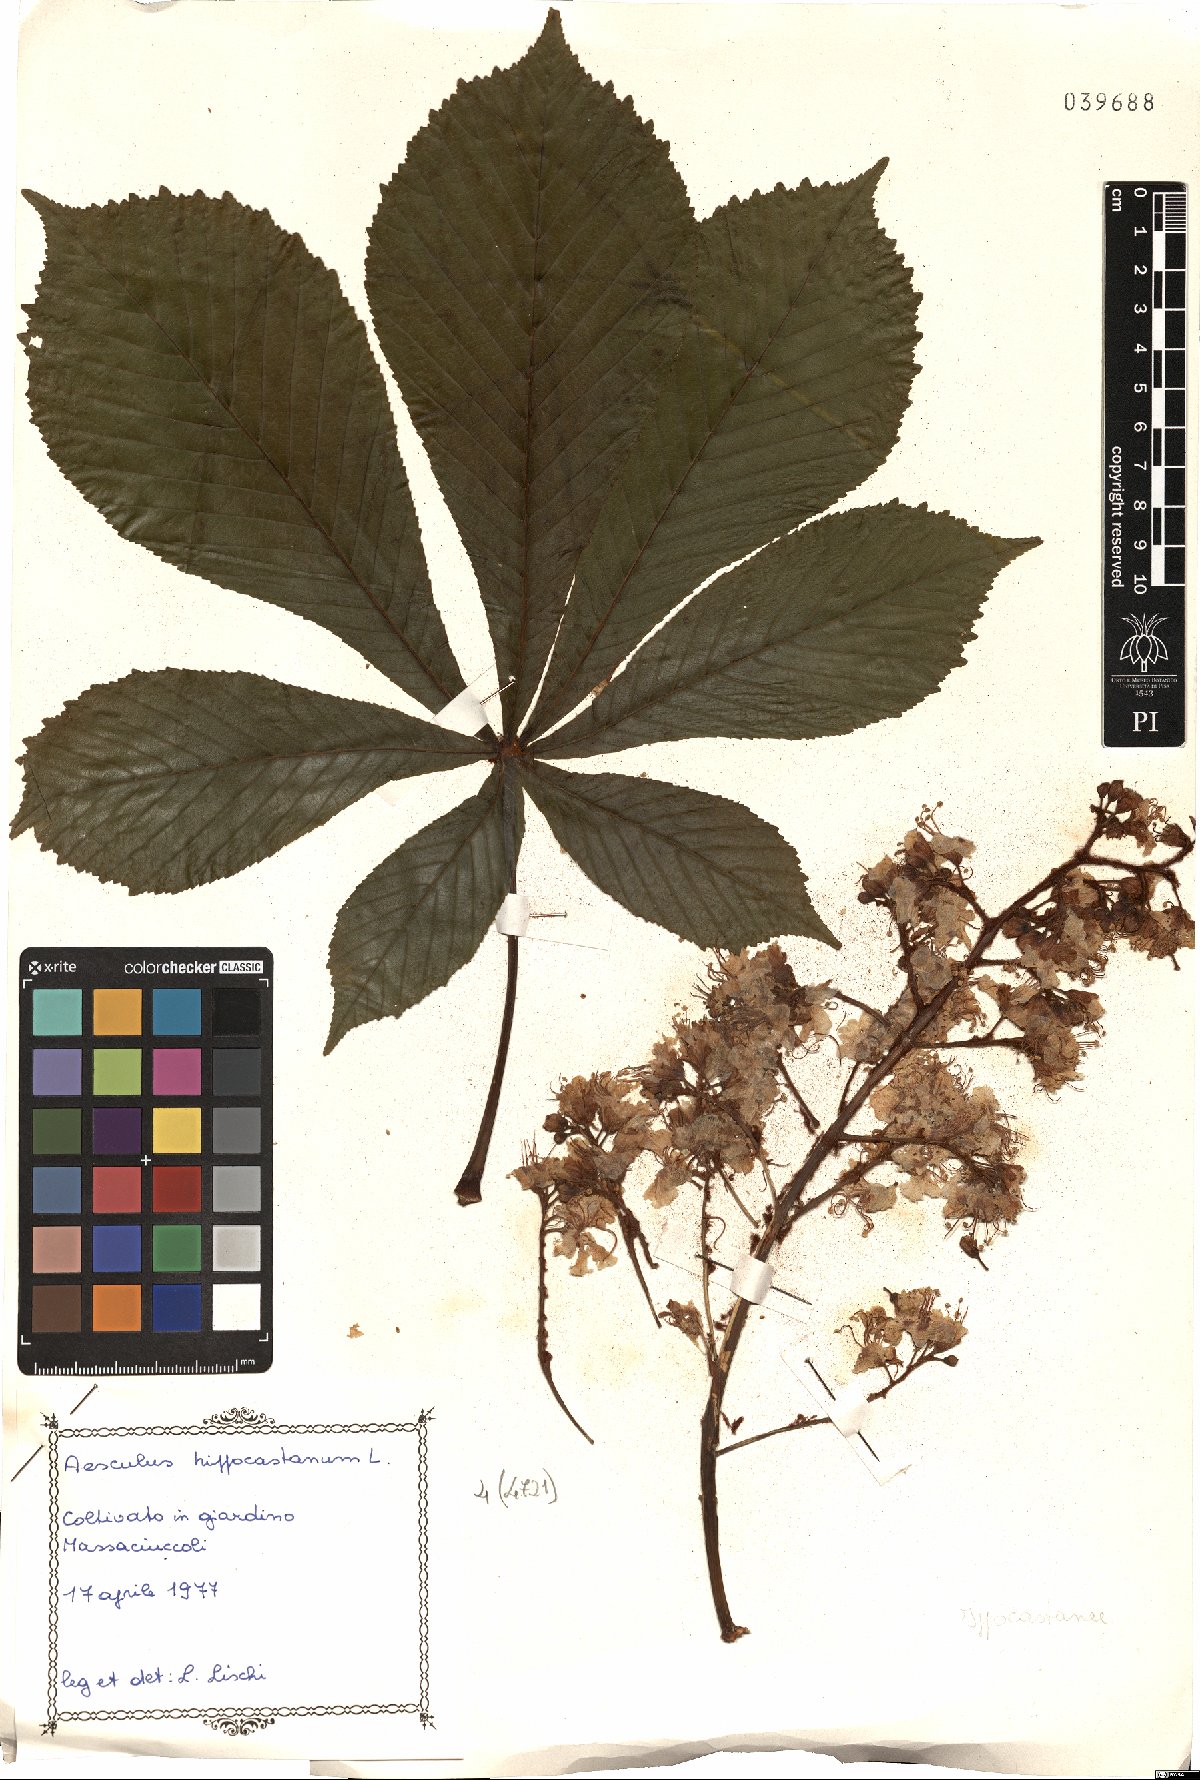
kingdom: Plantae
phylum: Tracheophyta
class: Magnoliopsida
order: Sapindales
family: Sapindaceae
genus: Aesculus
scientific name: Aesculus hippocastanum
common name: Horse-chestnut
